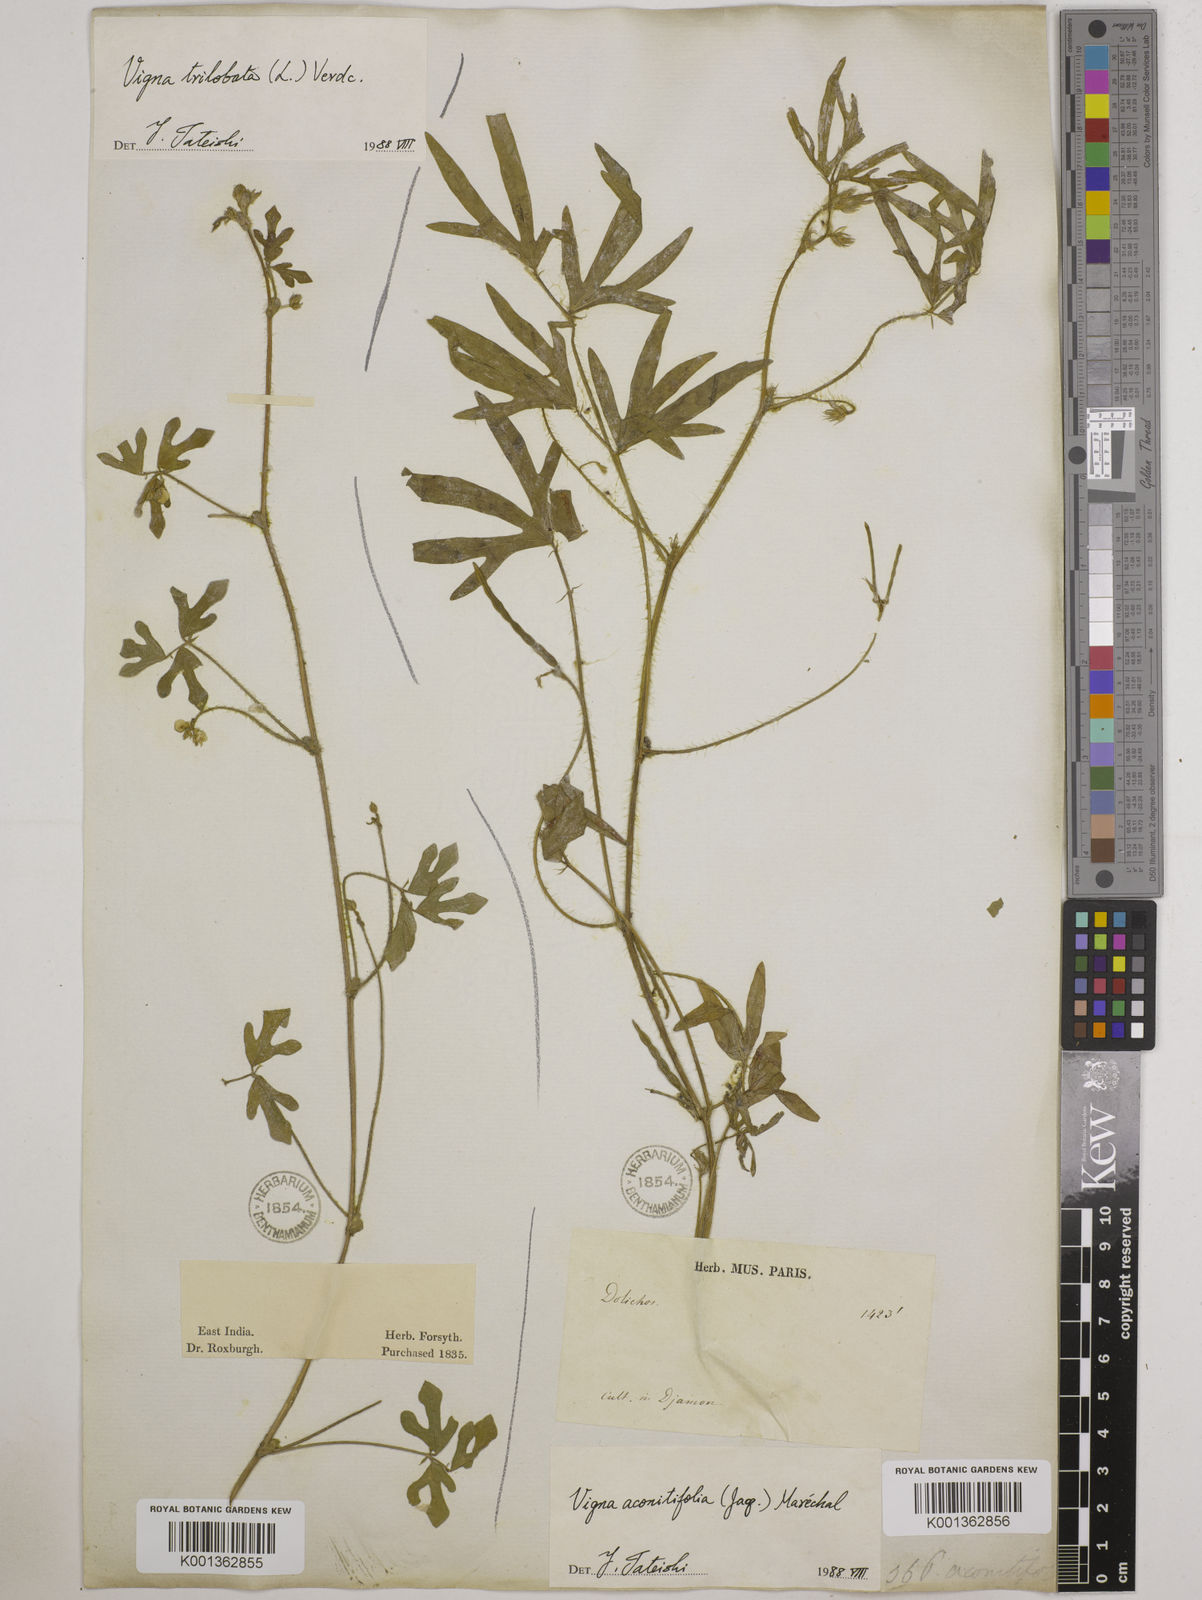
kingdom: Plantae
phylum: Tracheophyta
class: Magnoliopsida
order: Fabales
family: Fabaceae
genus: Vigna
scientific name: Vigna aconitifolia
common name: Dew bean
